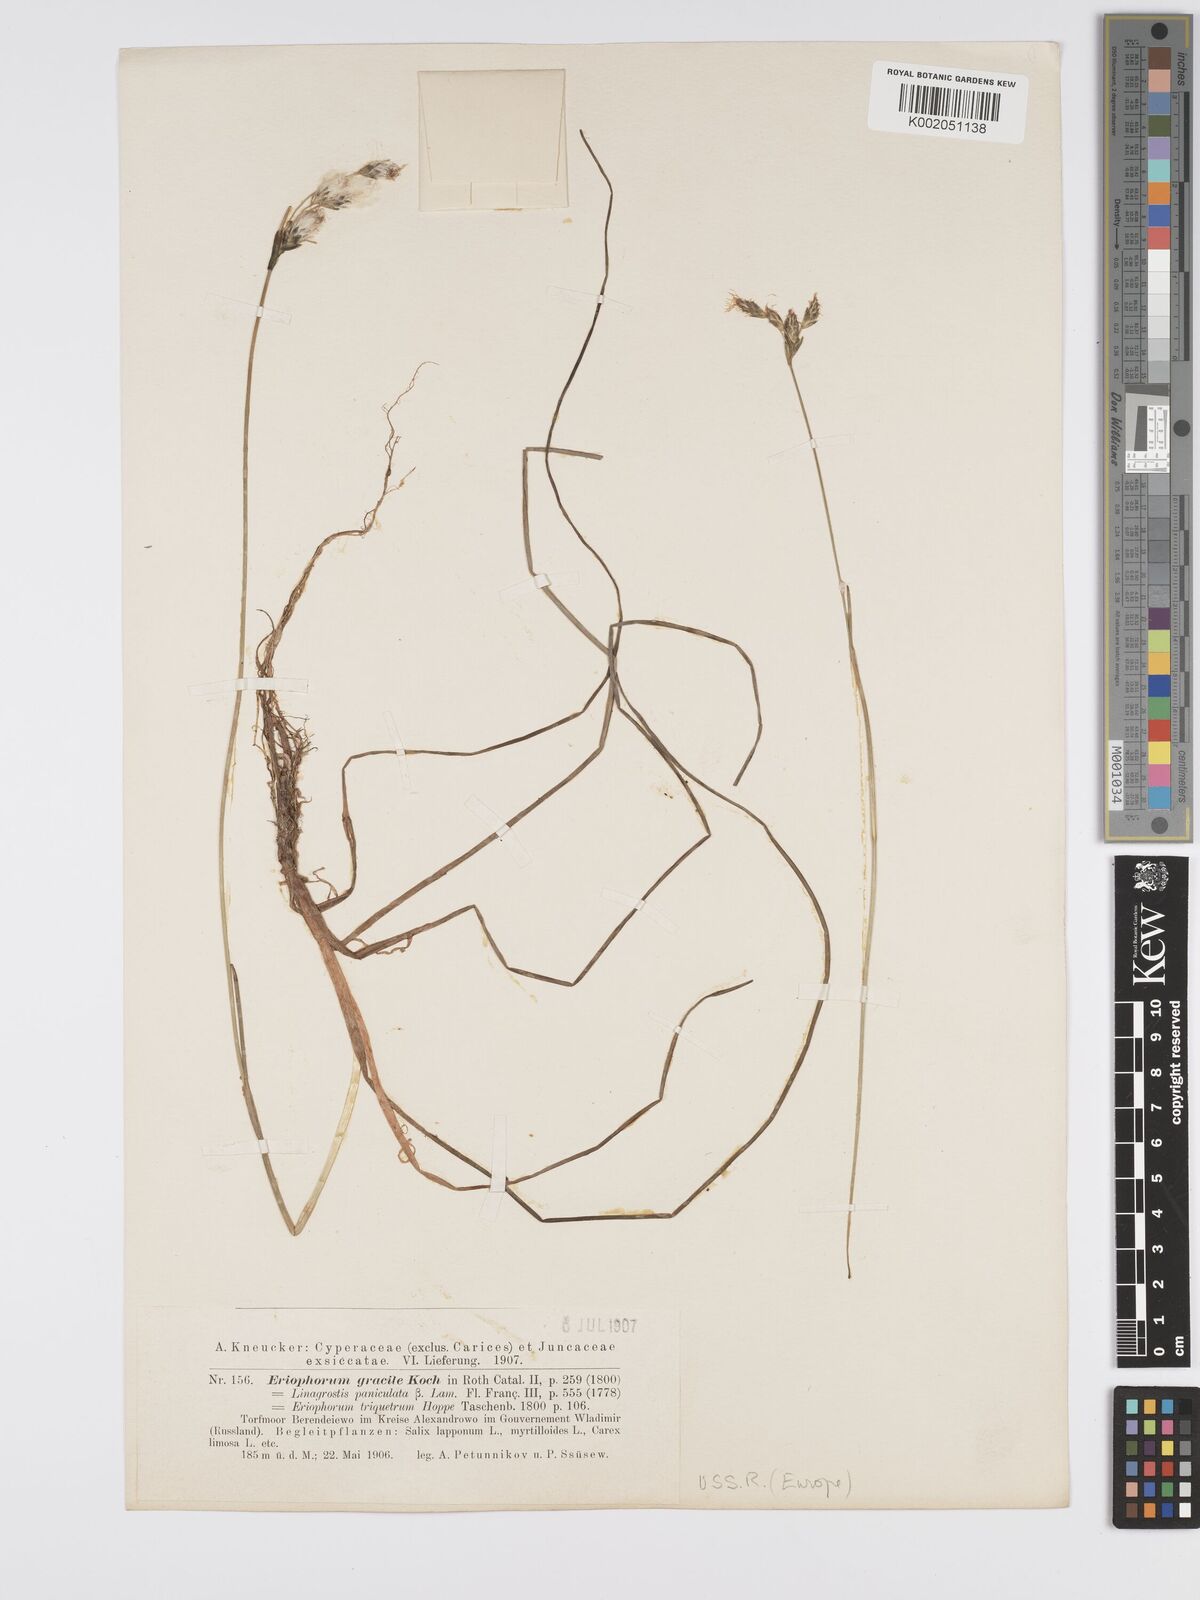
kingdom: Plantae
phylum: Tracheophyta
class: Liliopsida
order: Poales
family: Cyperaceae
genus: Eriophorum
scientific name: Eriophorum gracile
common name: Slender cottongrass
